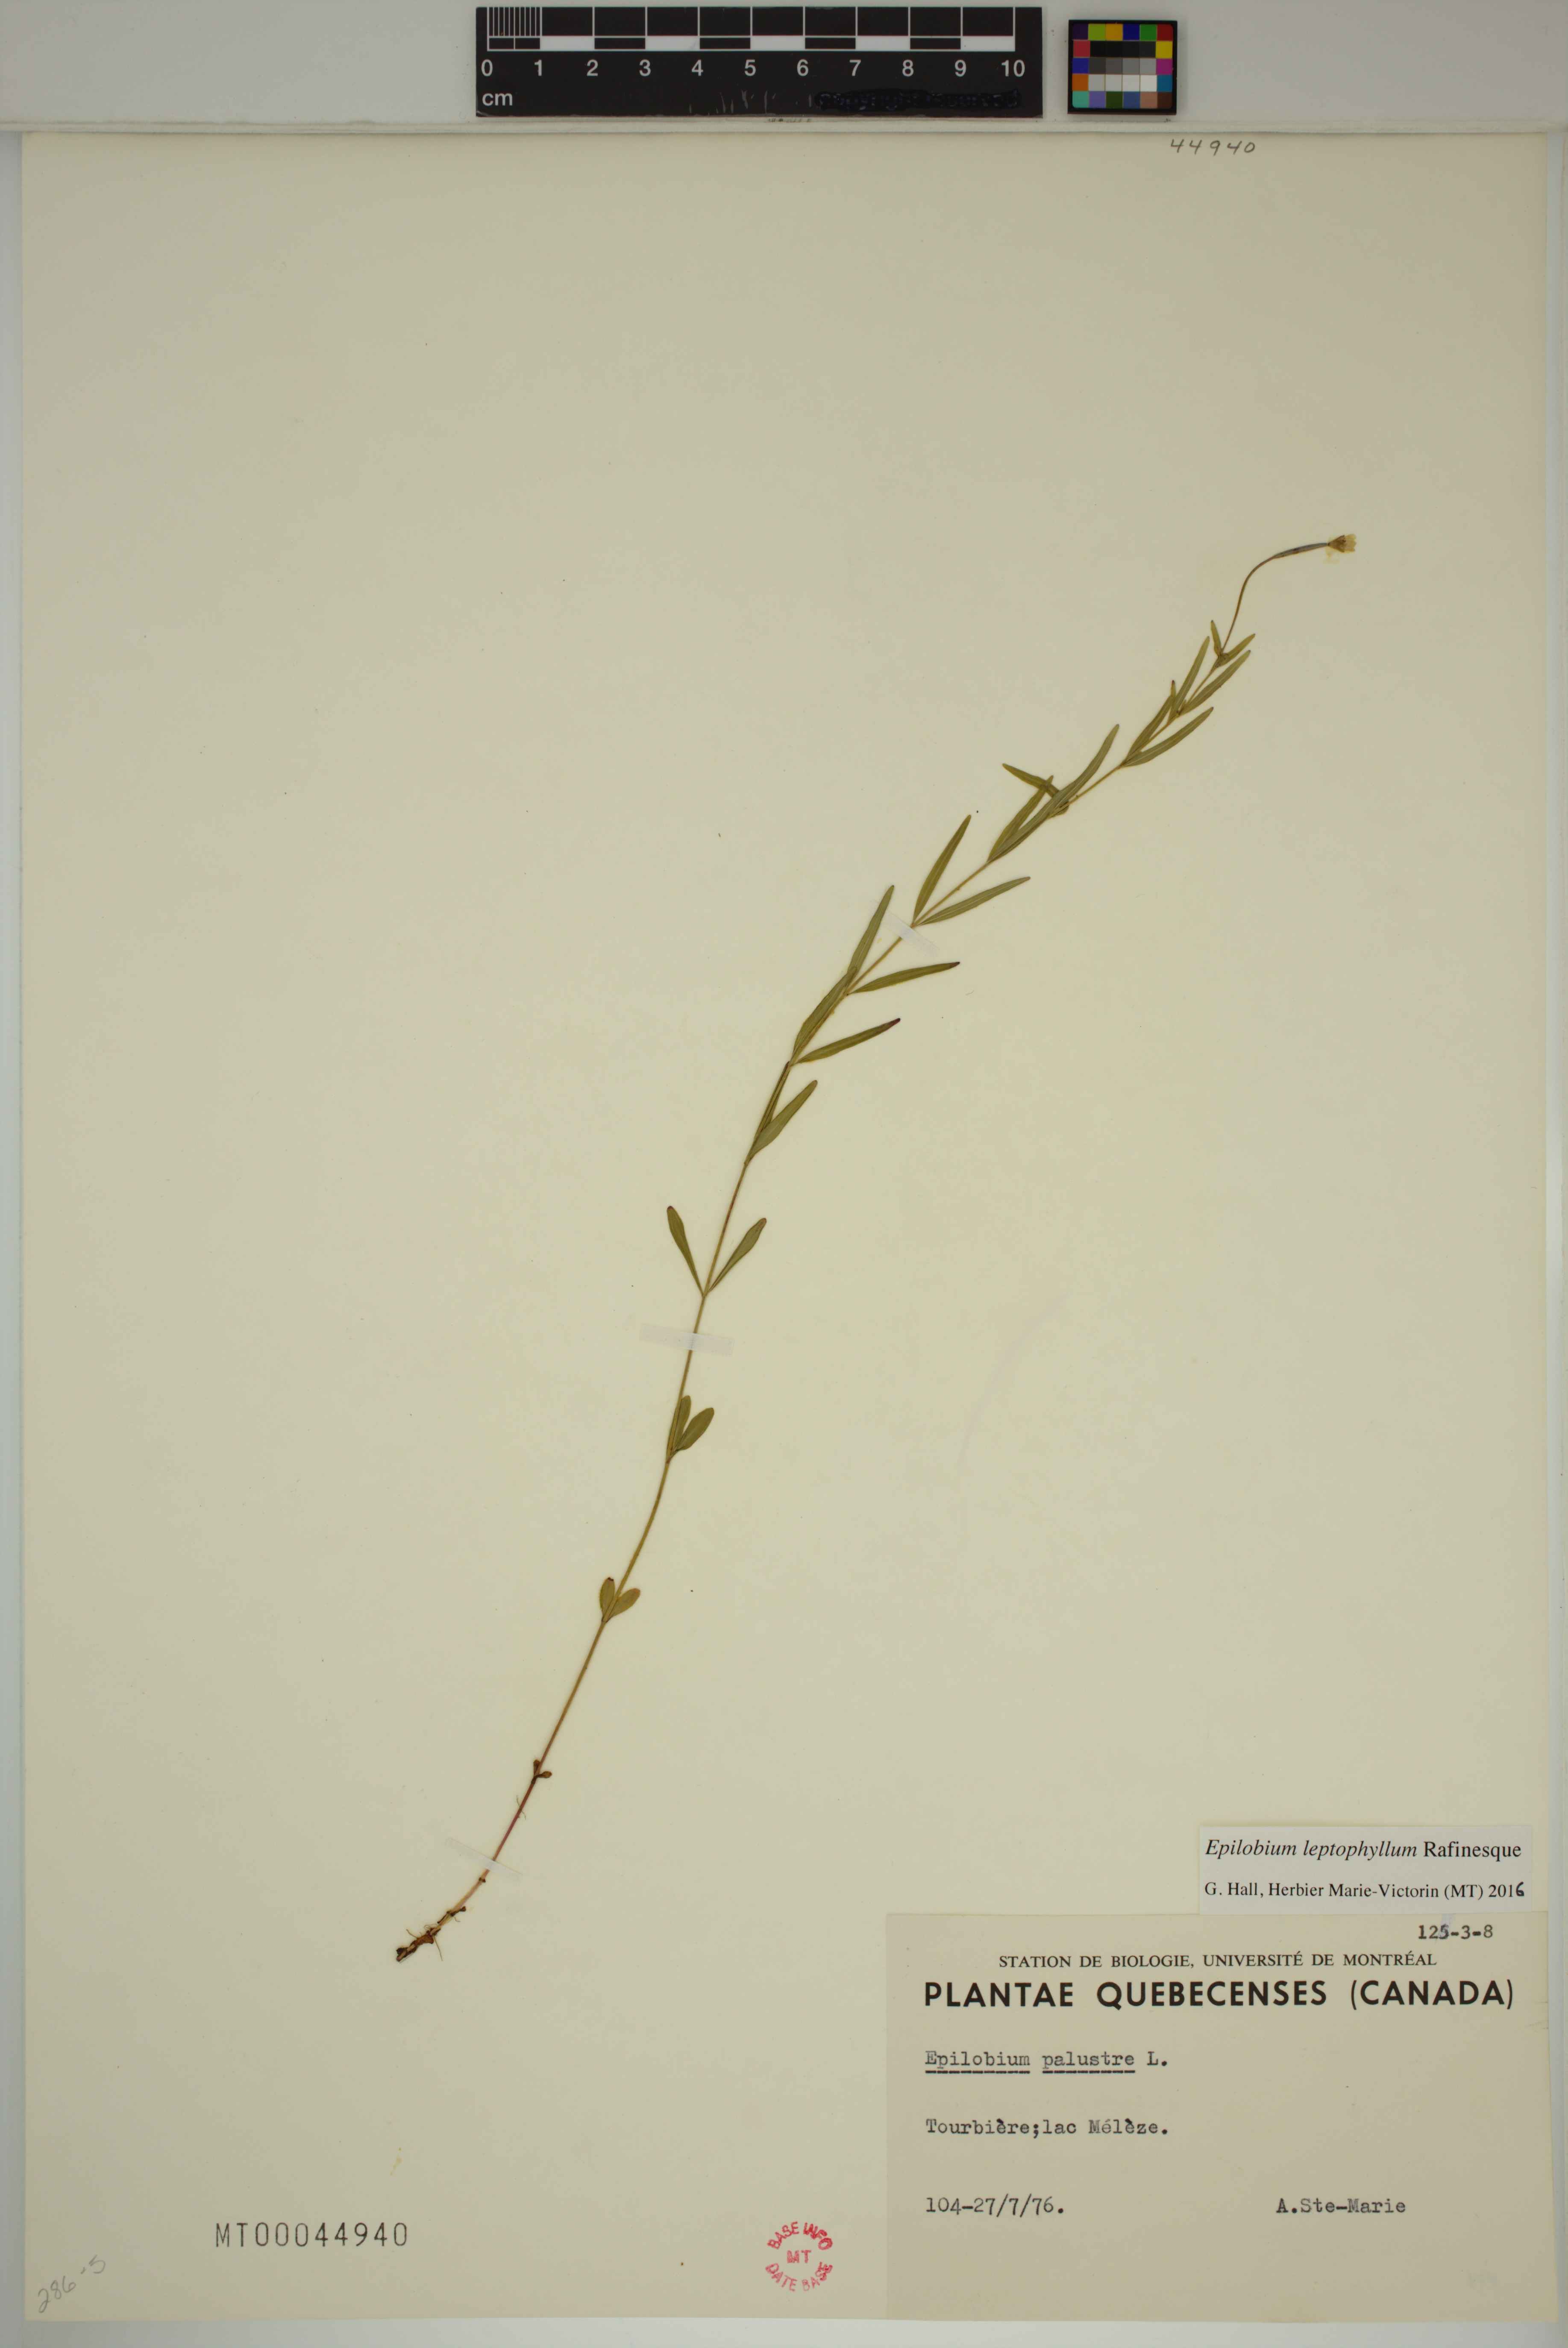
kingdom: Plantae
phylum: Tracheophyta
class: Magnoliopsida
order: Myrtales
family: Onagraceae
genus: Epilobium
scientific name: Epilobium leptophyllum
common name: Bog willowherb
